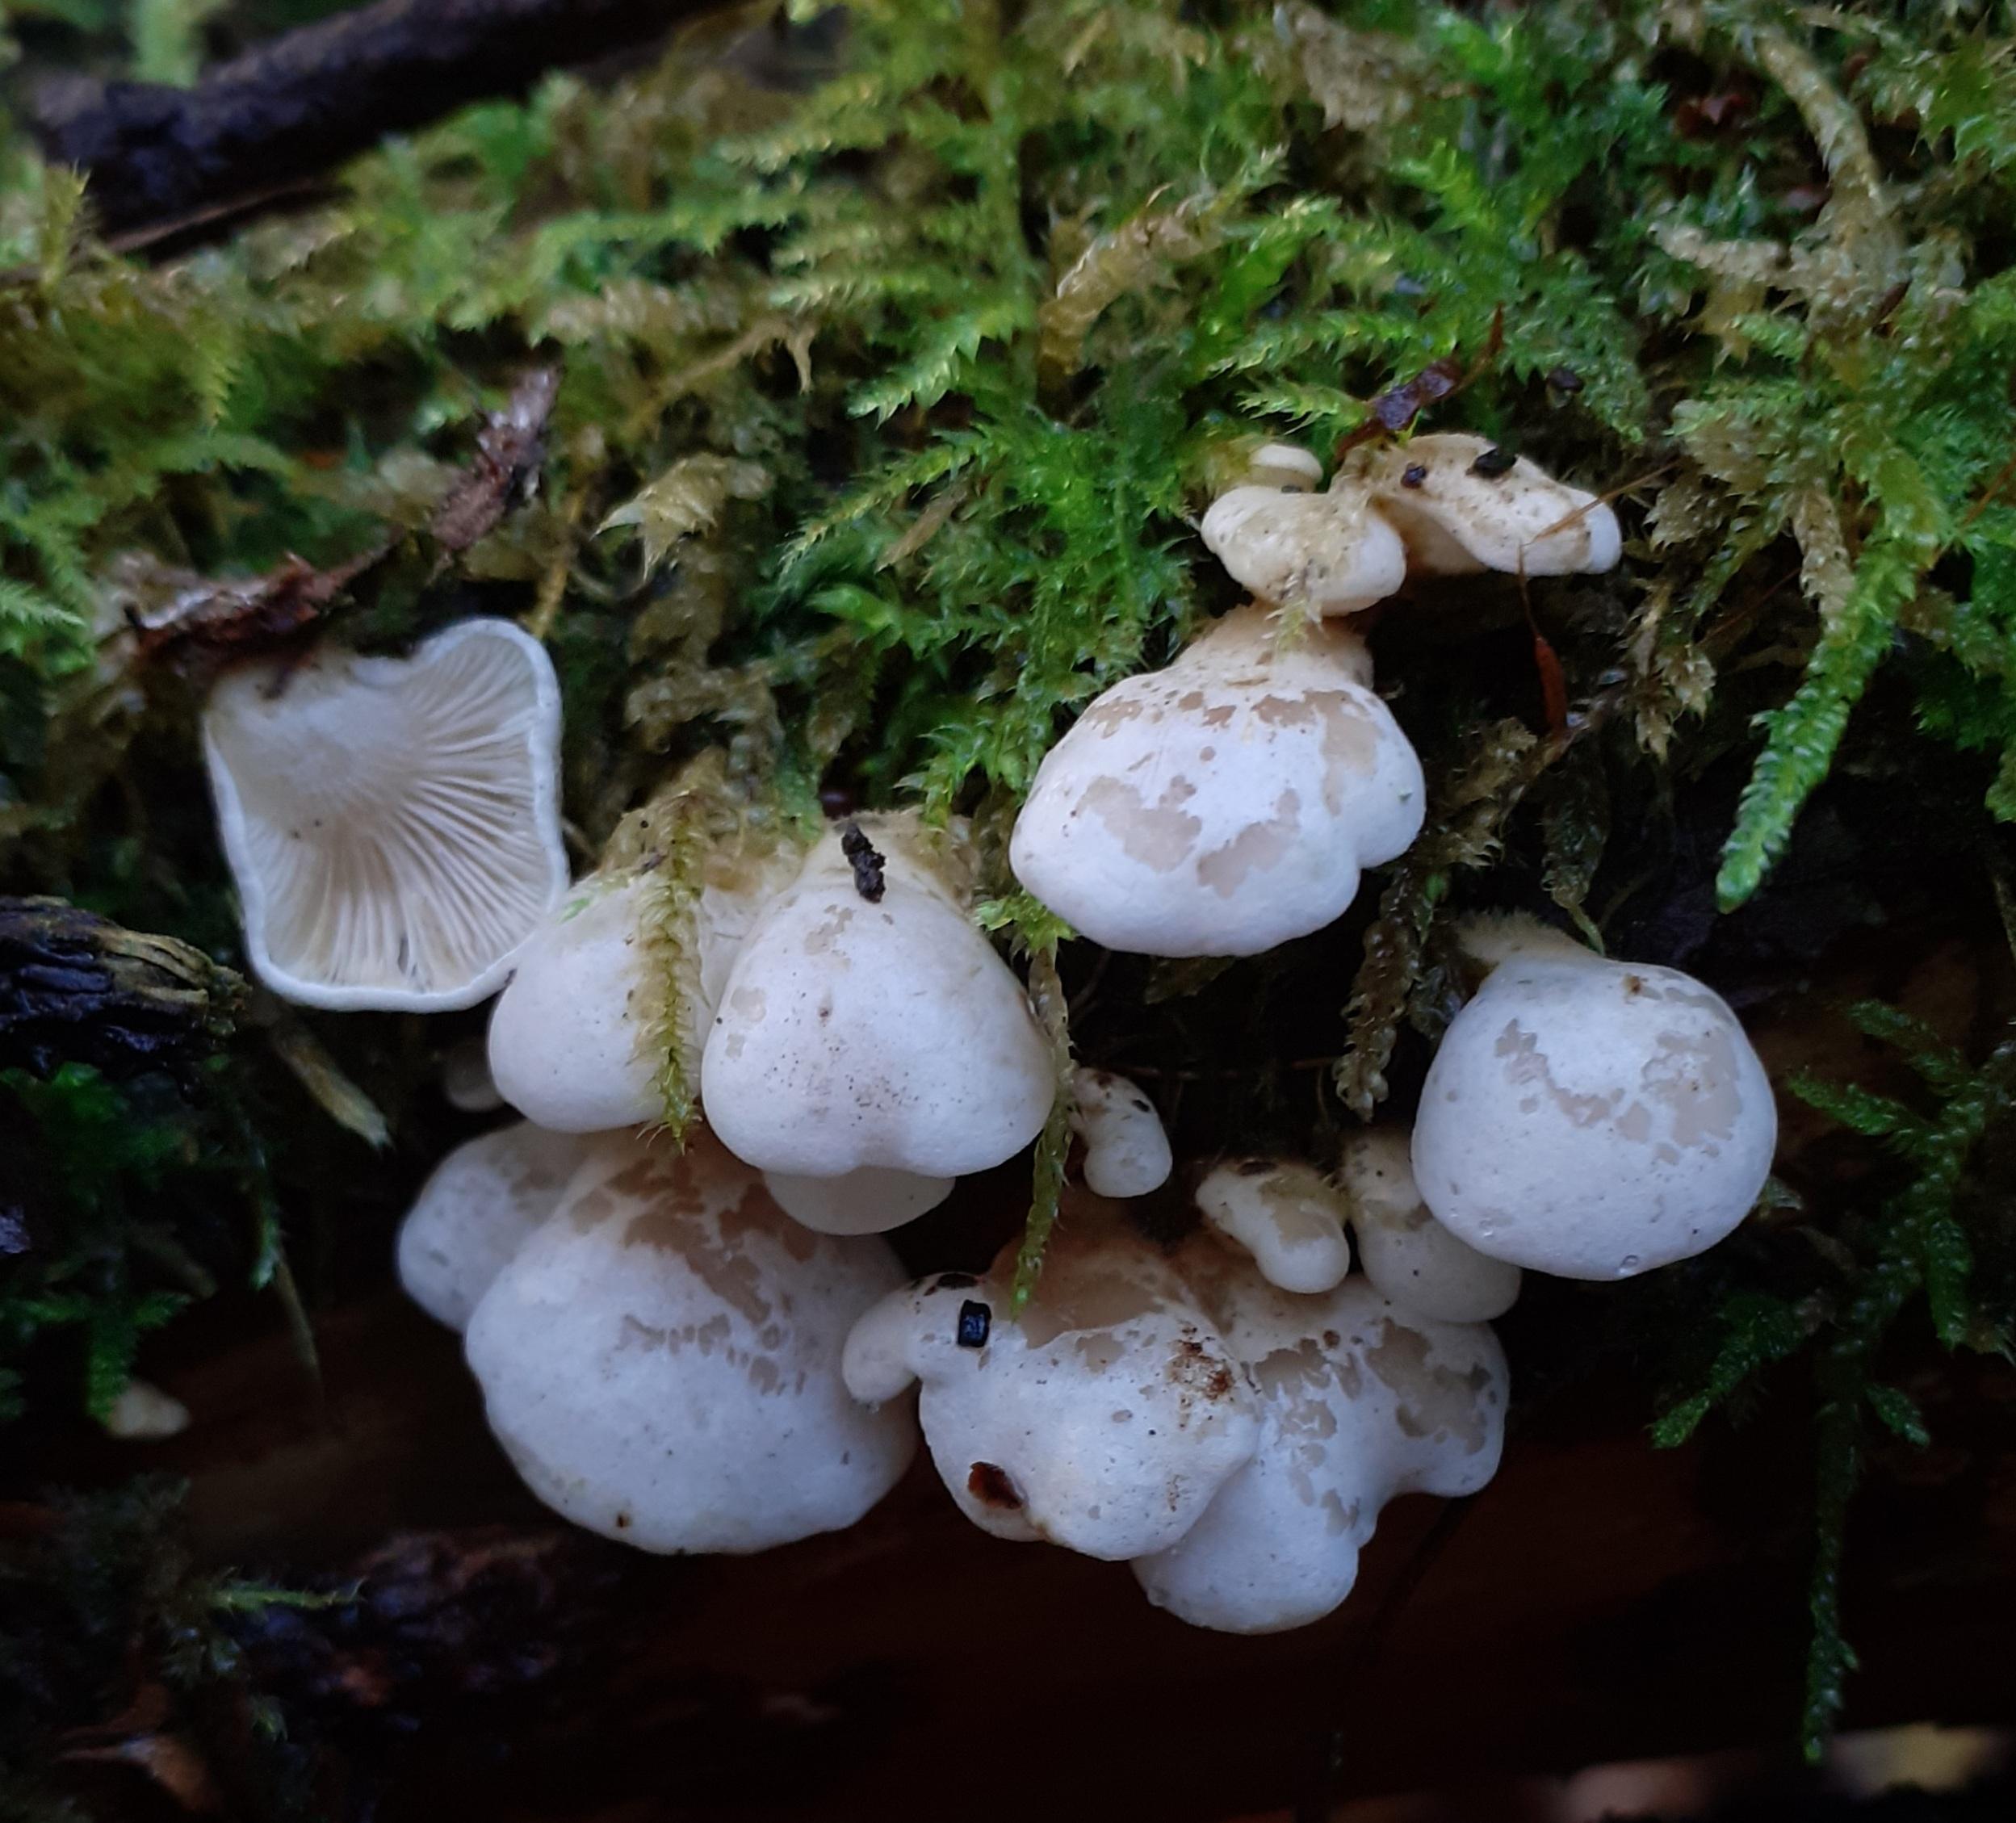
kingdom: Fungi
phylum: Basidiomycota
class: Agaricomycetes
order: Agaricales
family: Mycenaceae
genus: Panellus
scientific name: Panellus mitis
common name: mild epaulethat
